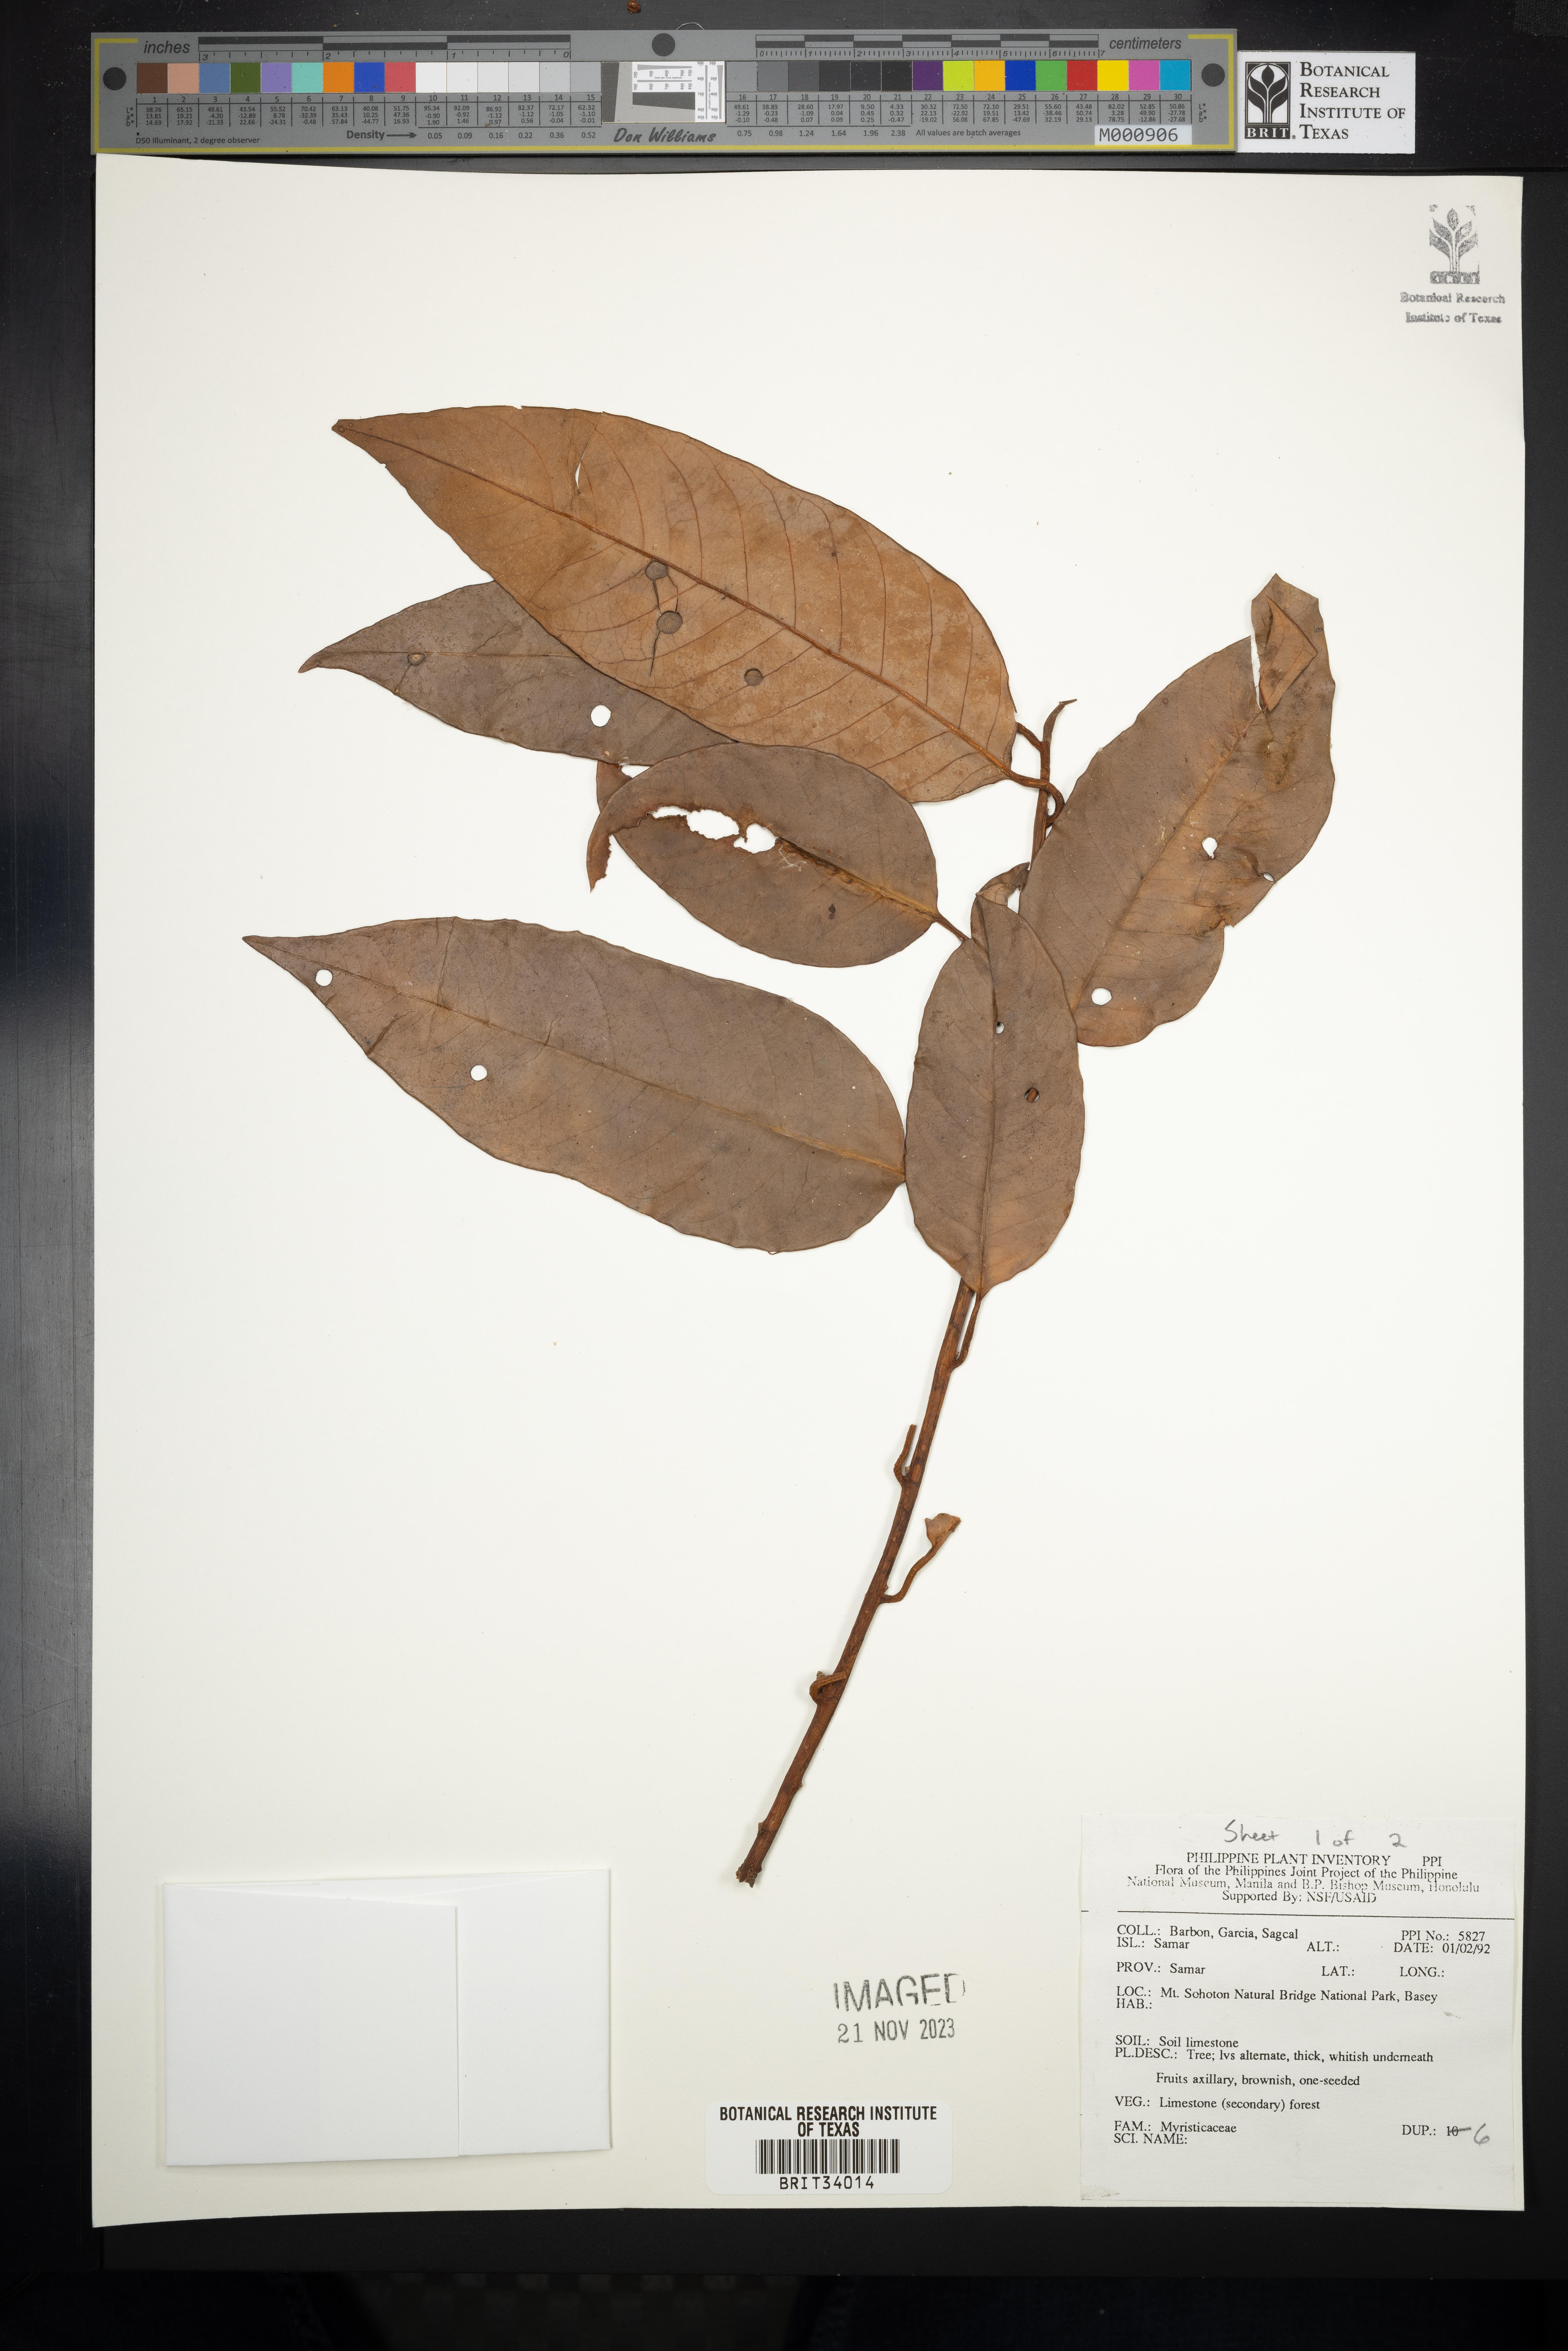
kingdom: Plantae
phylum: Tracheophyta
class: Magnoliopsida
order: Magnoliales
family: Myristicaceae
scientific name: Myristicaceae
